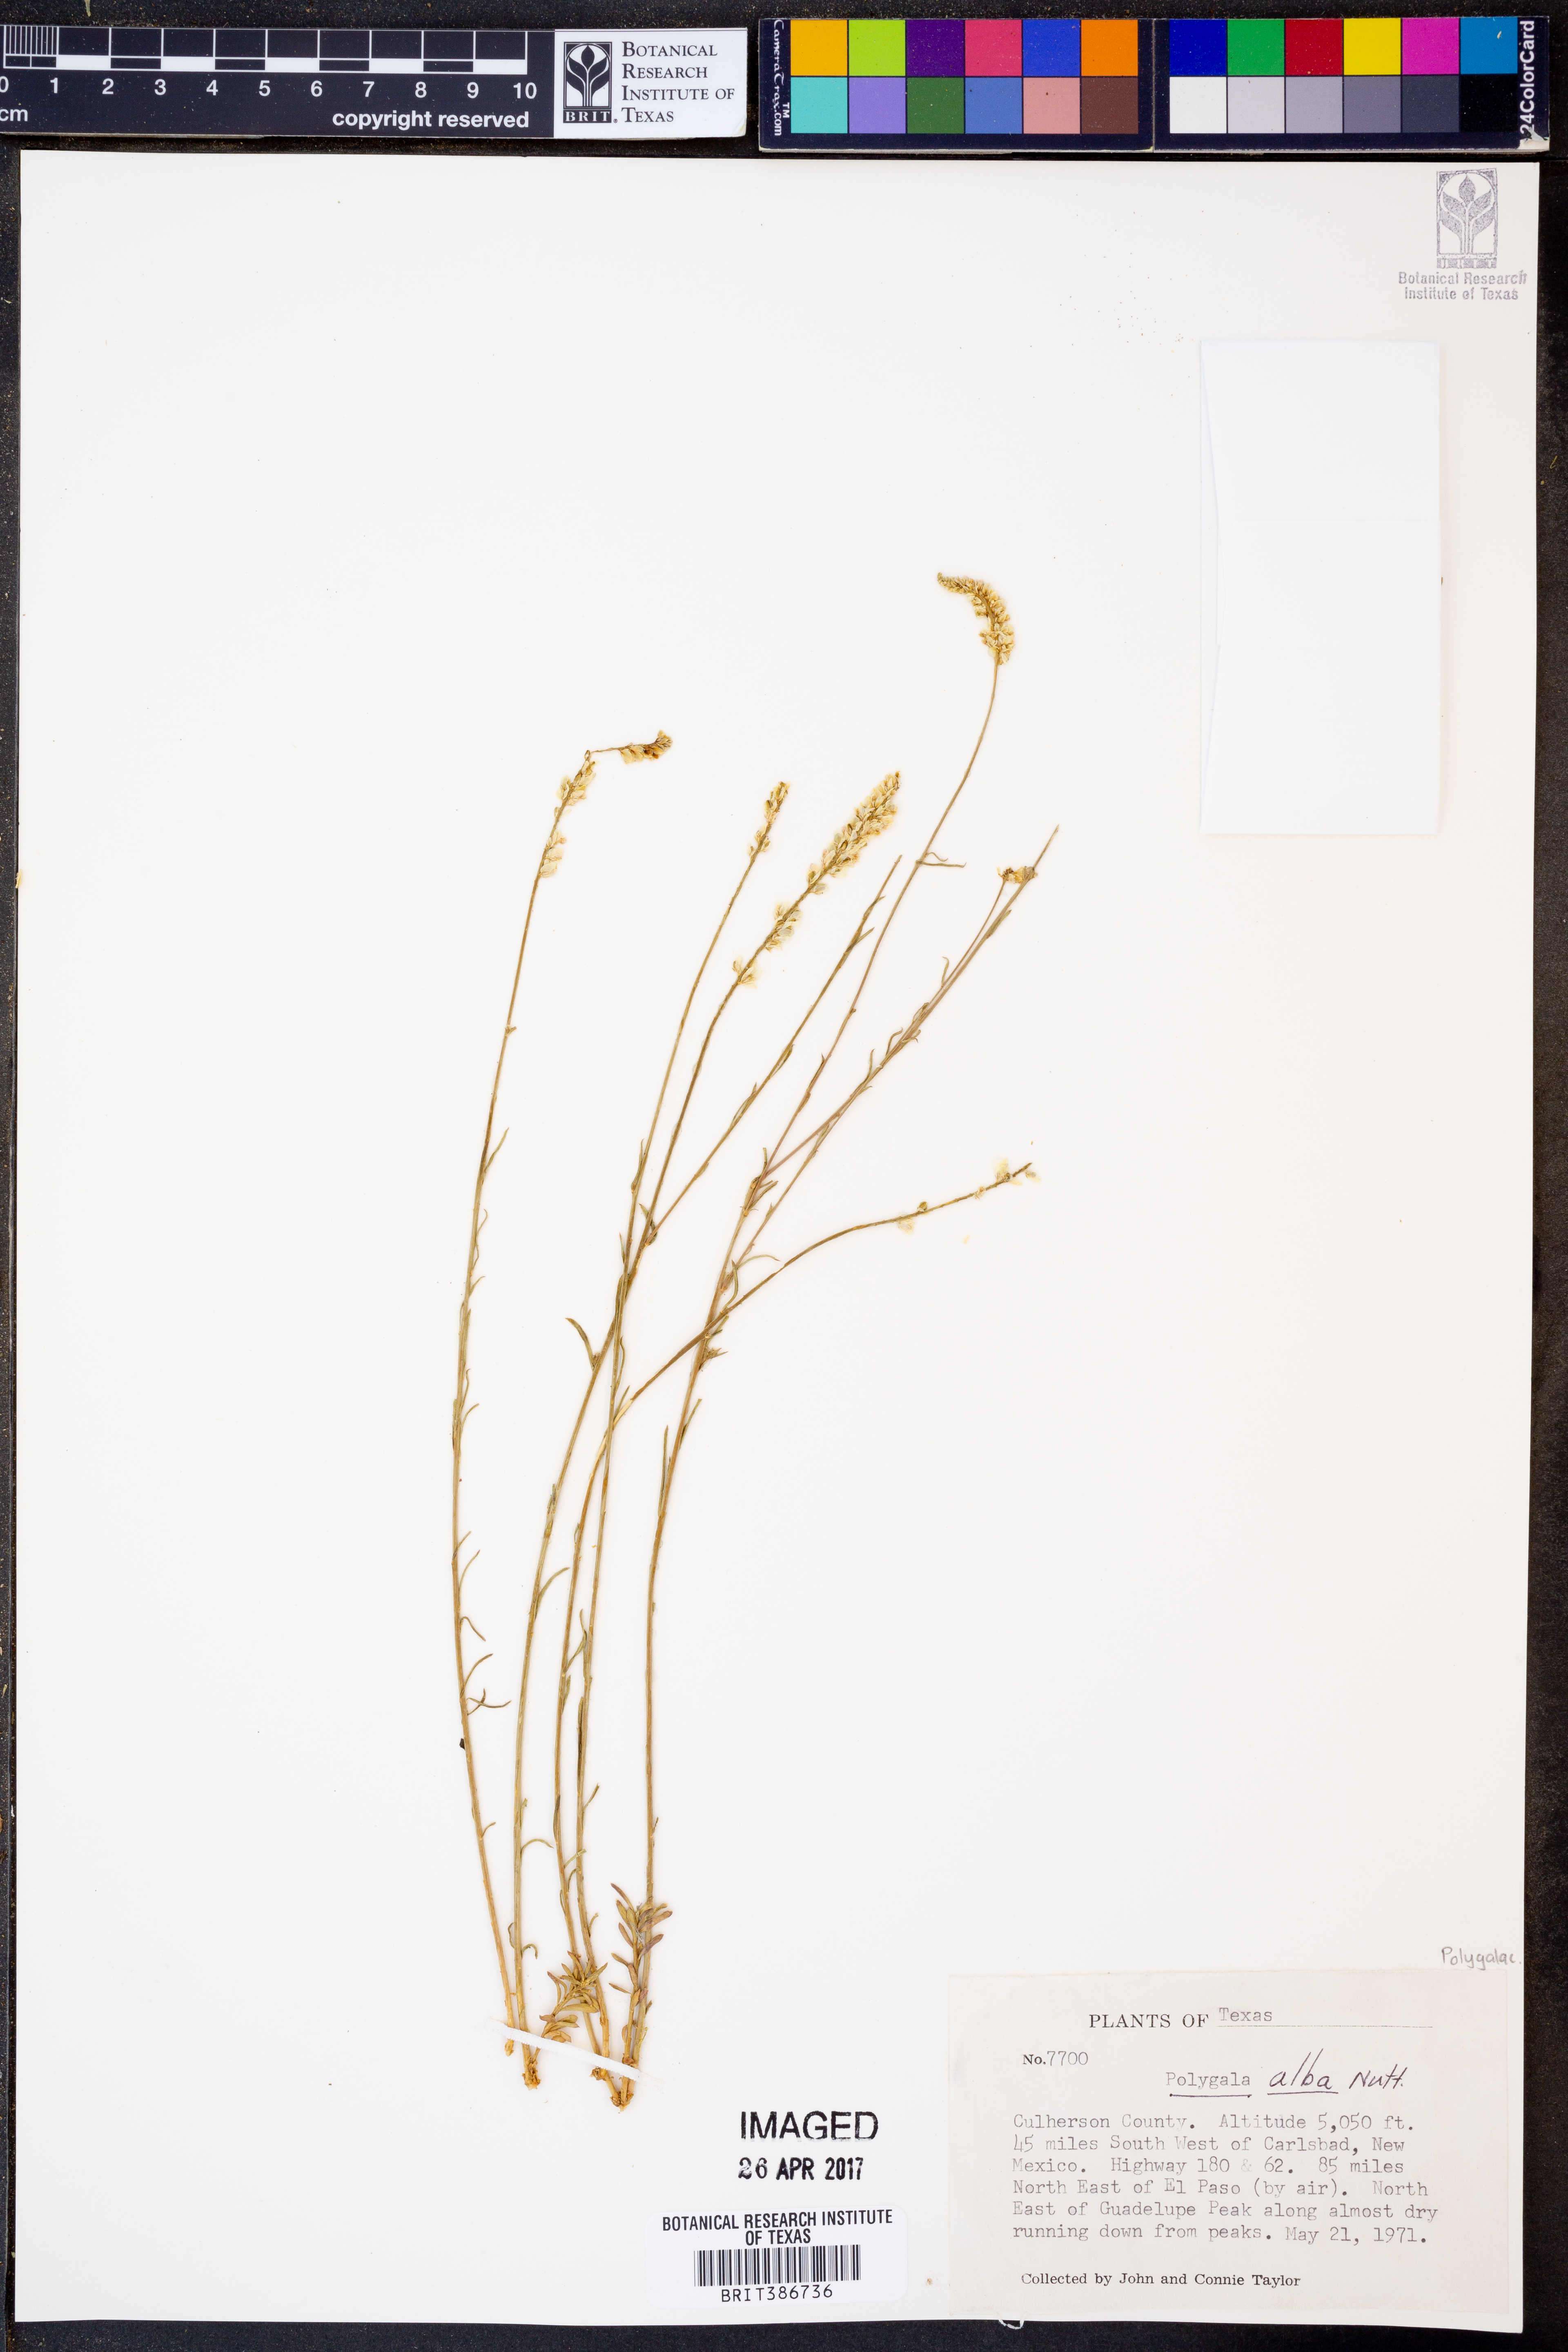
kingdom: Plantae
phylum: Tracheophyta
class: Magnoliopsida
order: Fabales
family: Polygalaceae
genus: Polygala
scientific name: Polygala alba
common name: White milkwort
